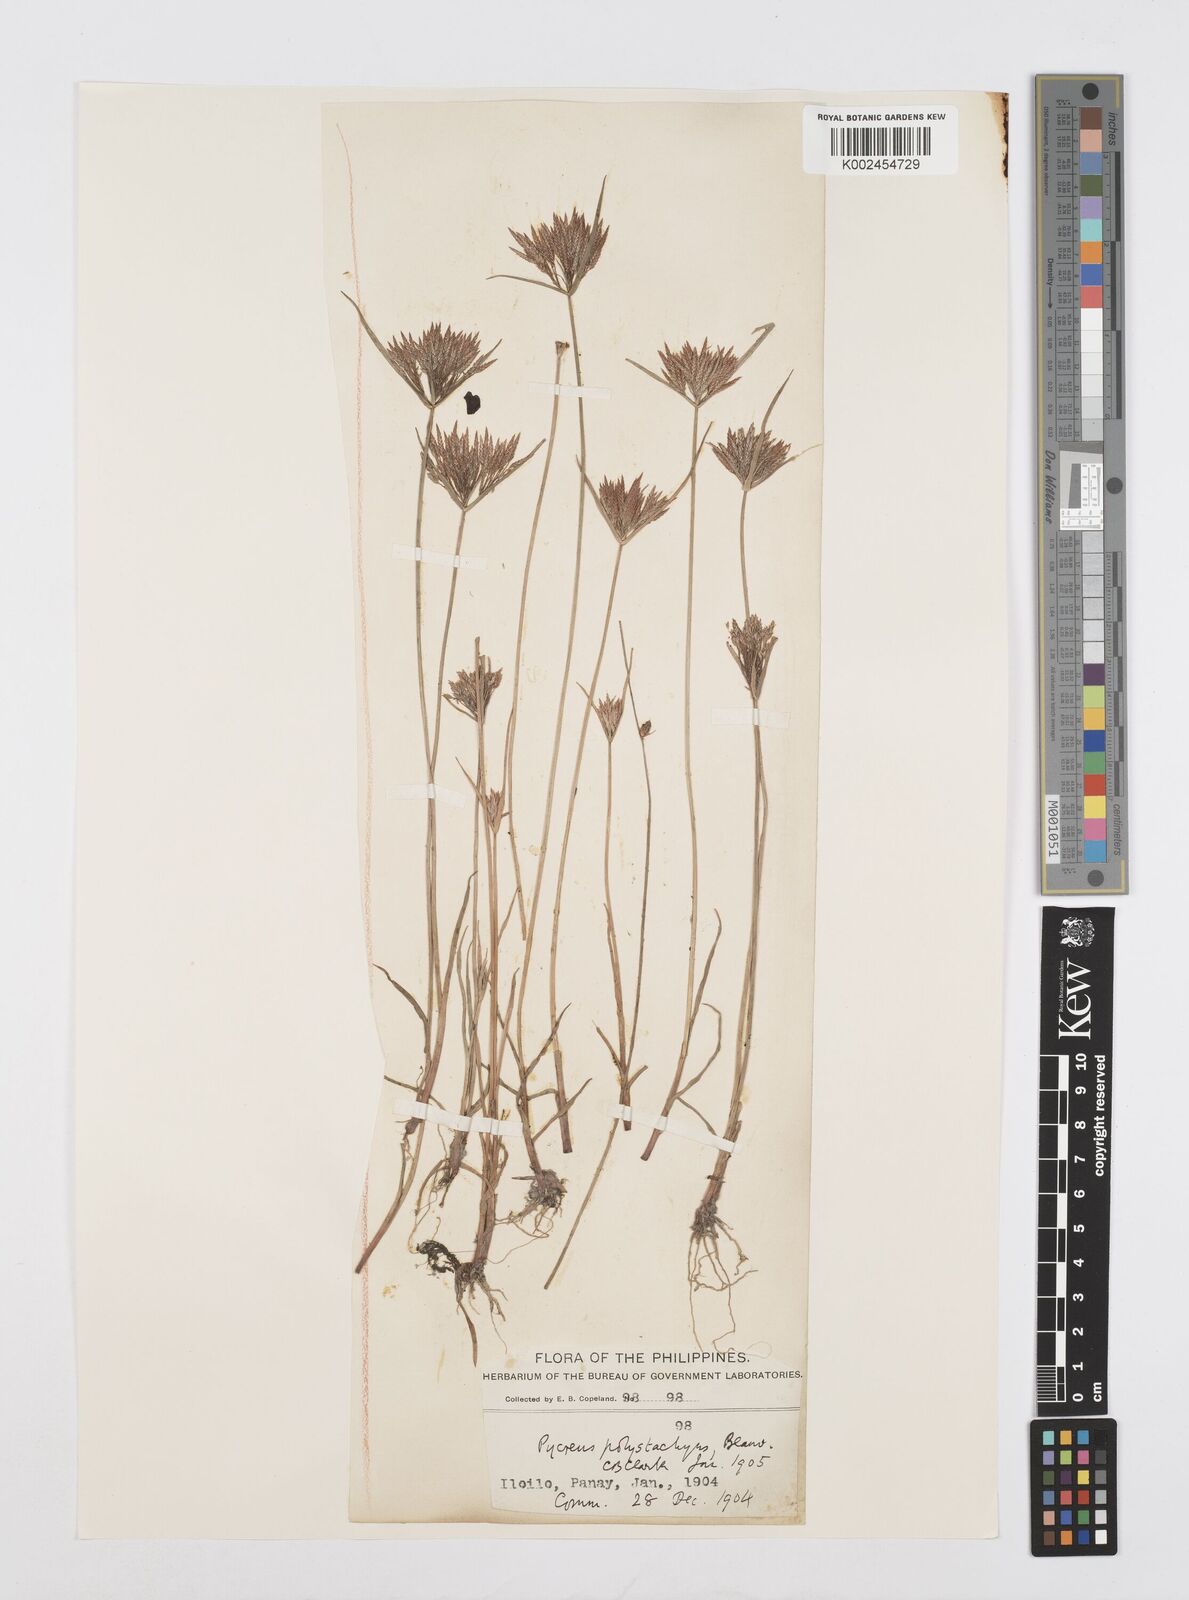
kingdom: Plantae
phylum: Tracheophyta
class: Liliopsida
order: Poales
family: Cyperaceae
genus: Cyperus
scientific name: Cyperus polystachyos
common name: Bunchy flat sedge
